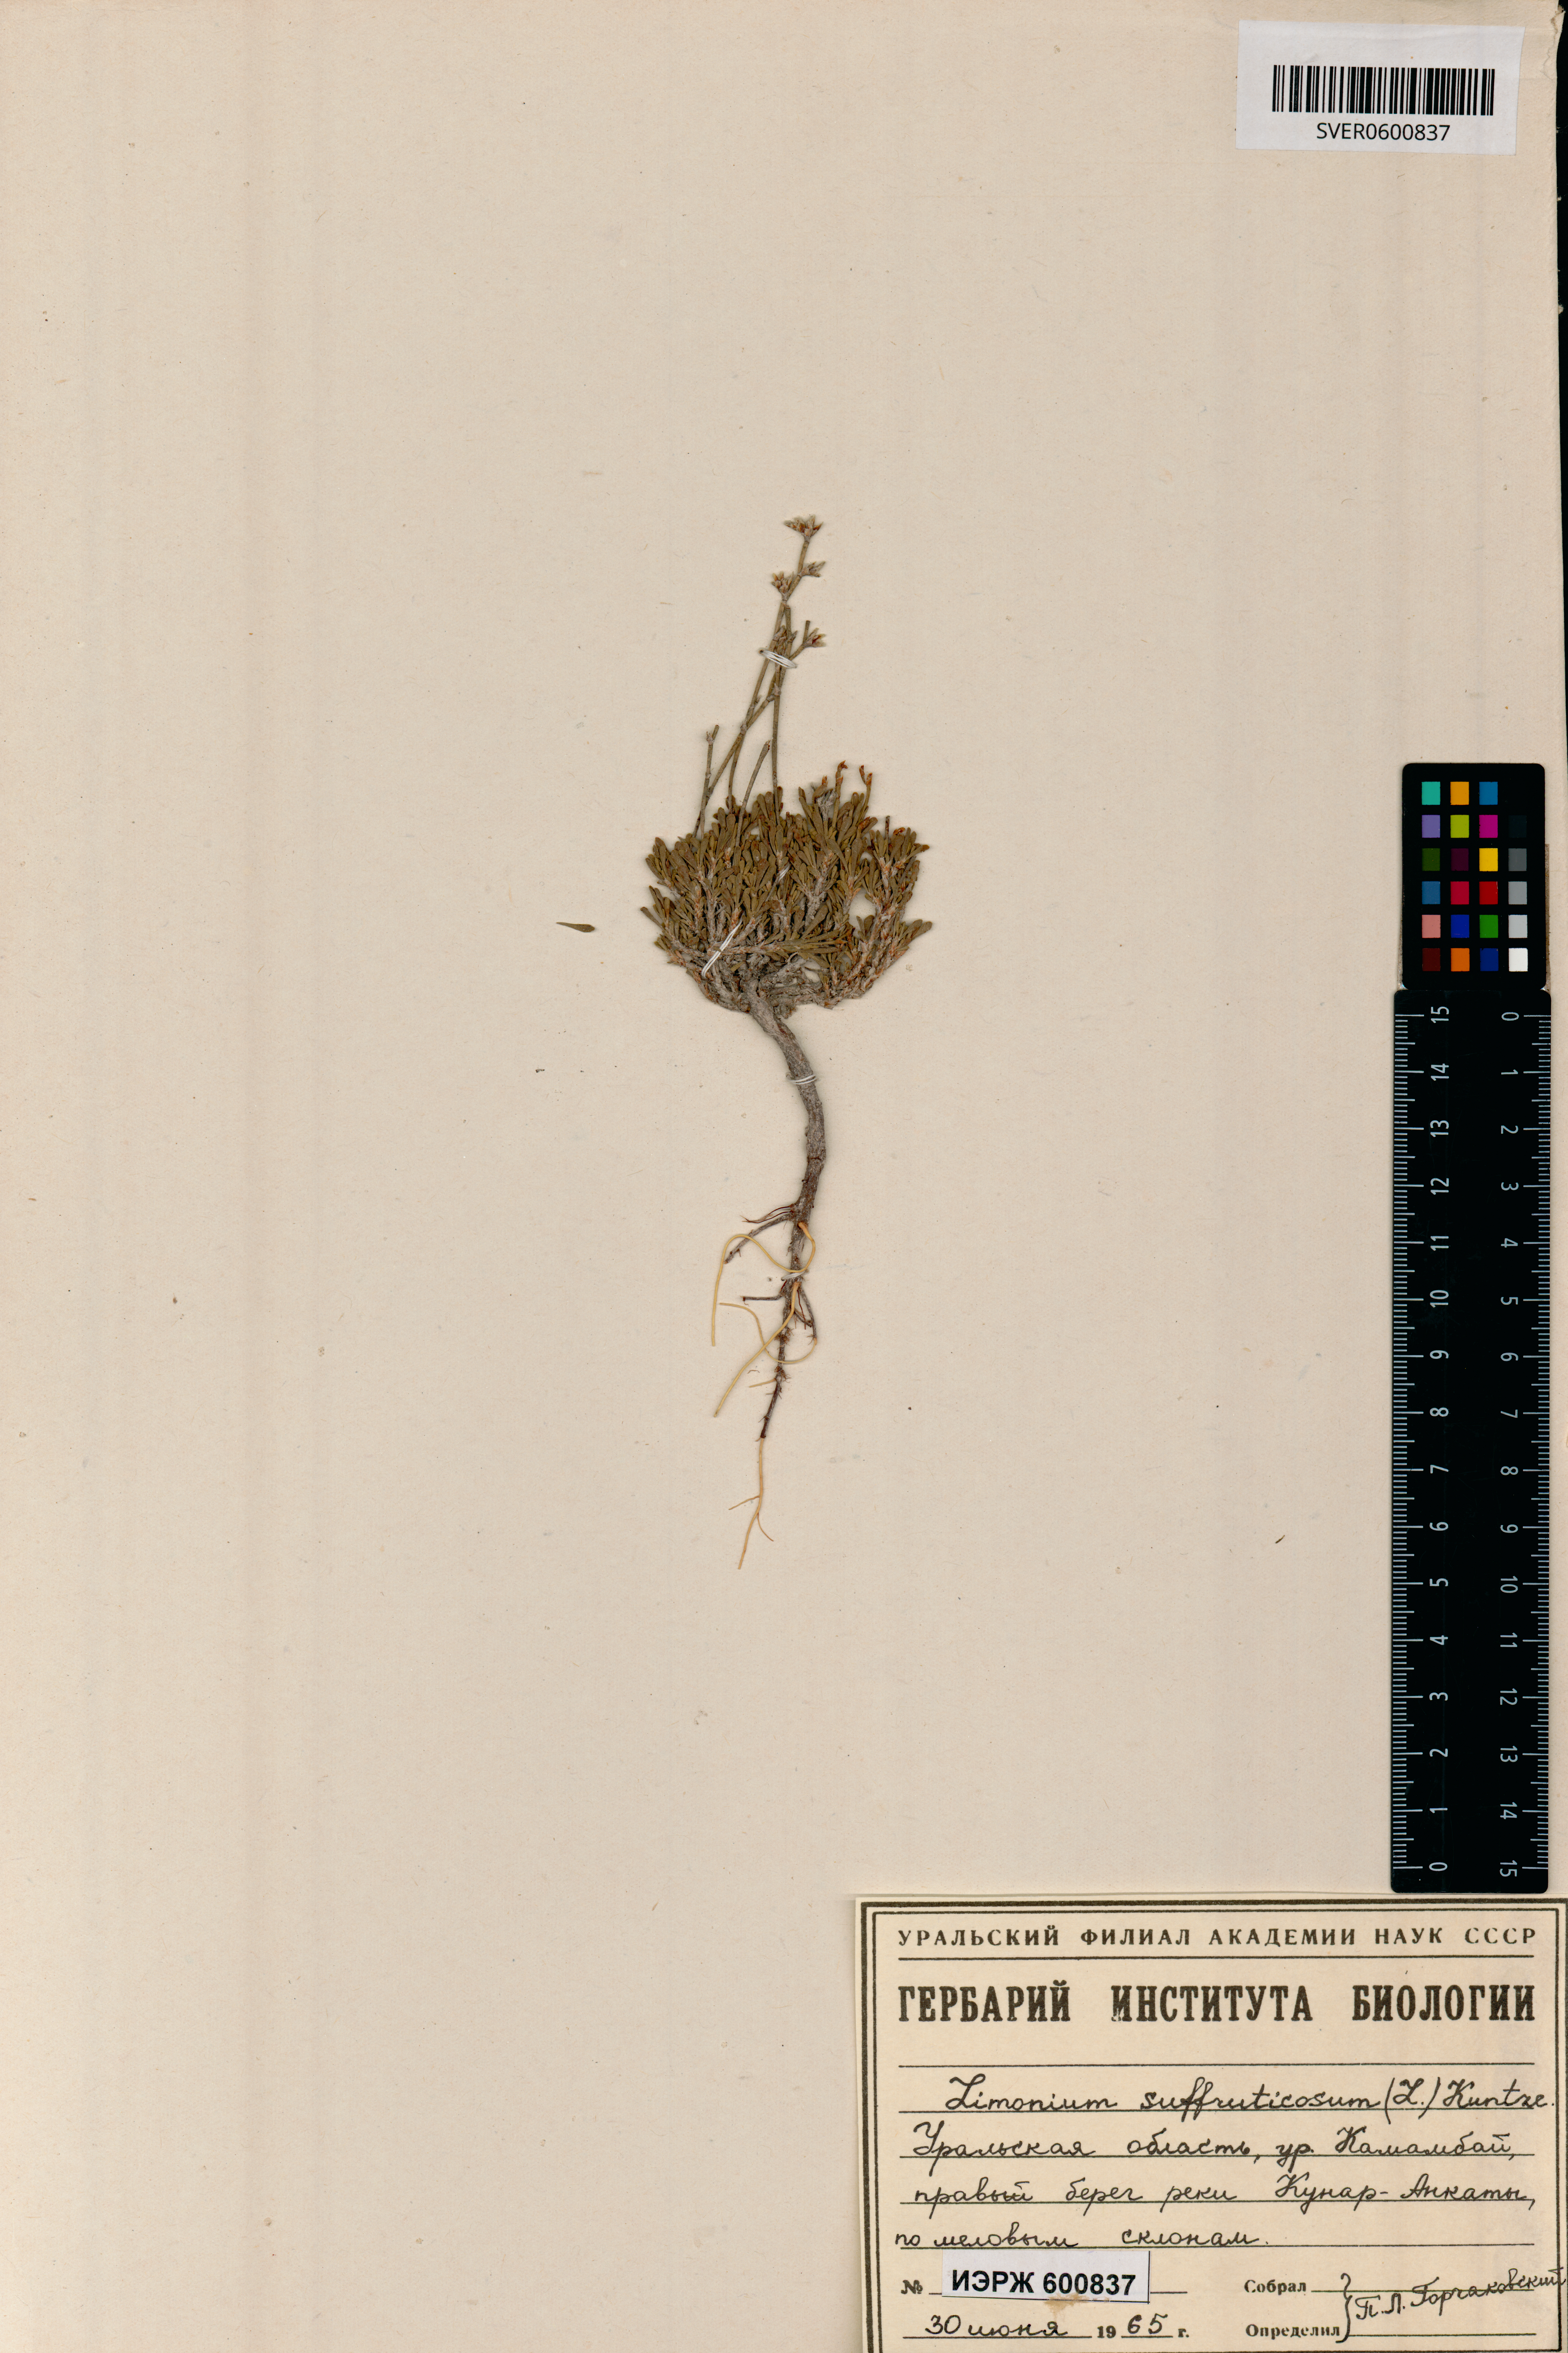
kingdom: Plantae
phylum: Tracheophyta
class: Magnoliopsida
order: Caryophyllales
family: Plumbaginaceae
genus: Limonium
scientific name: Limonium suffruticosum
